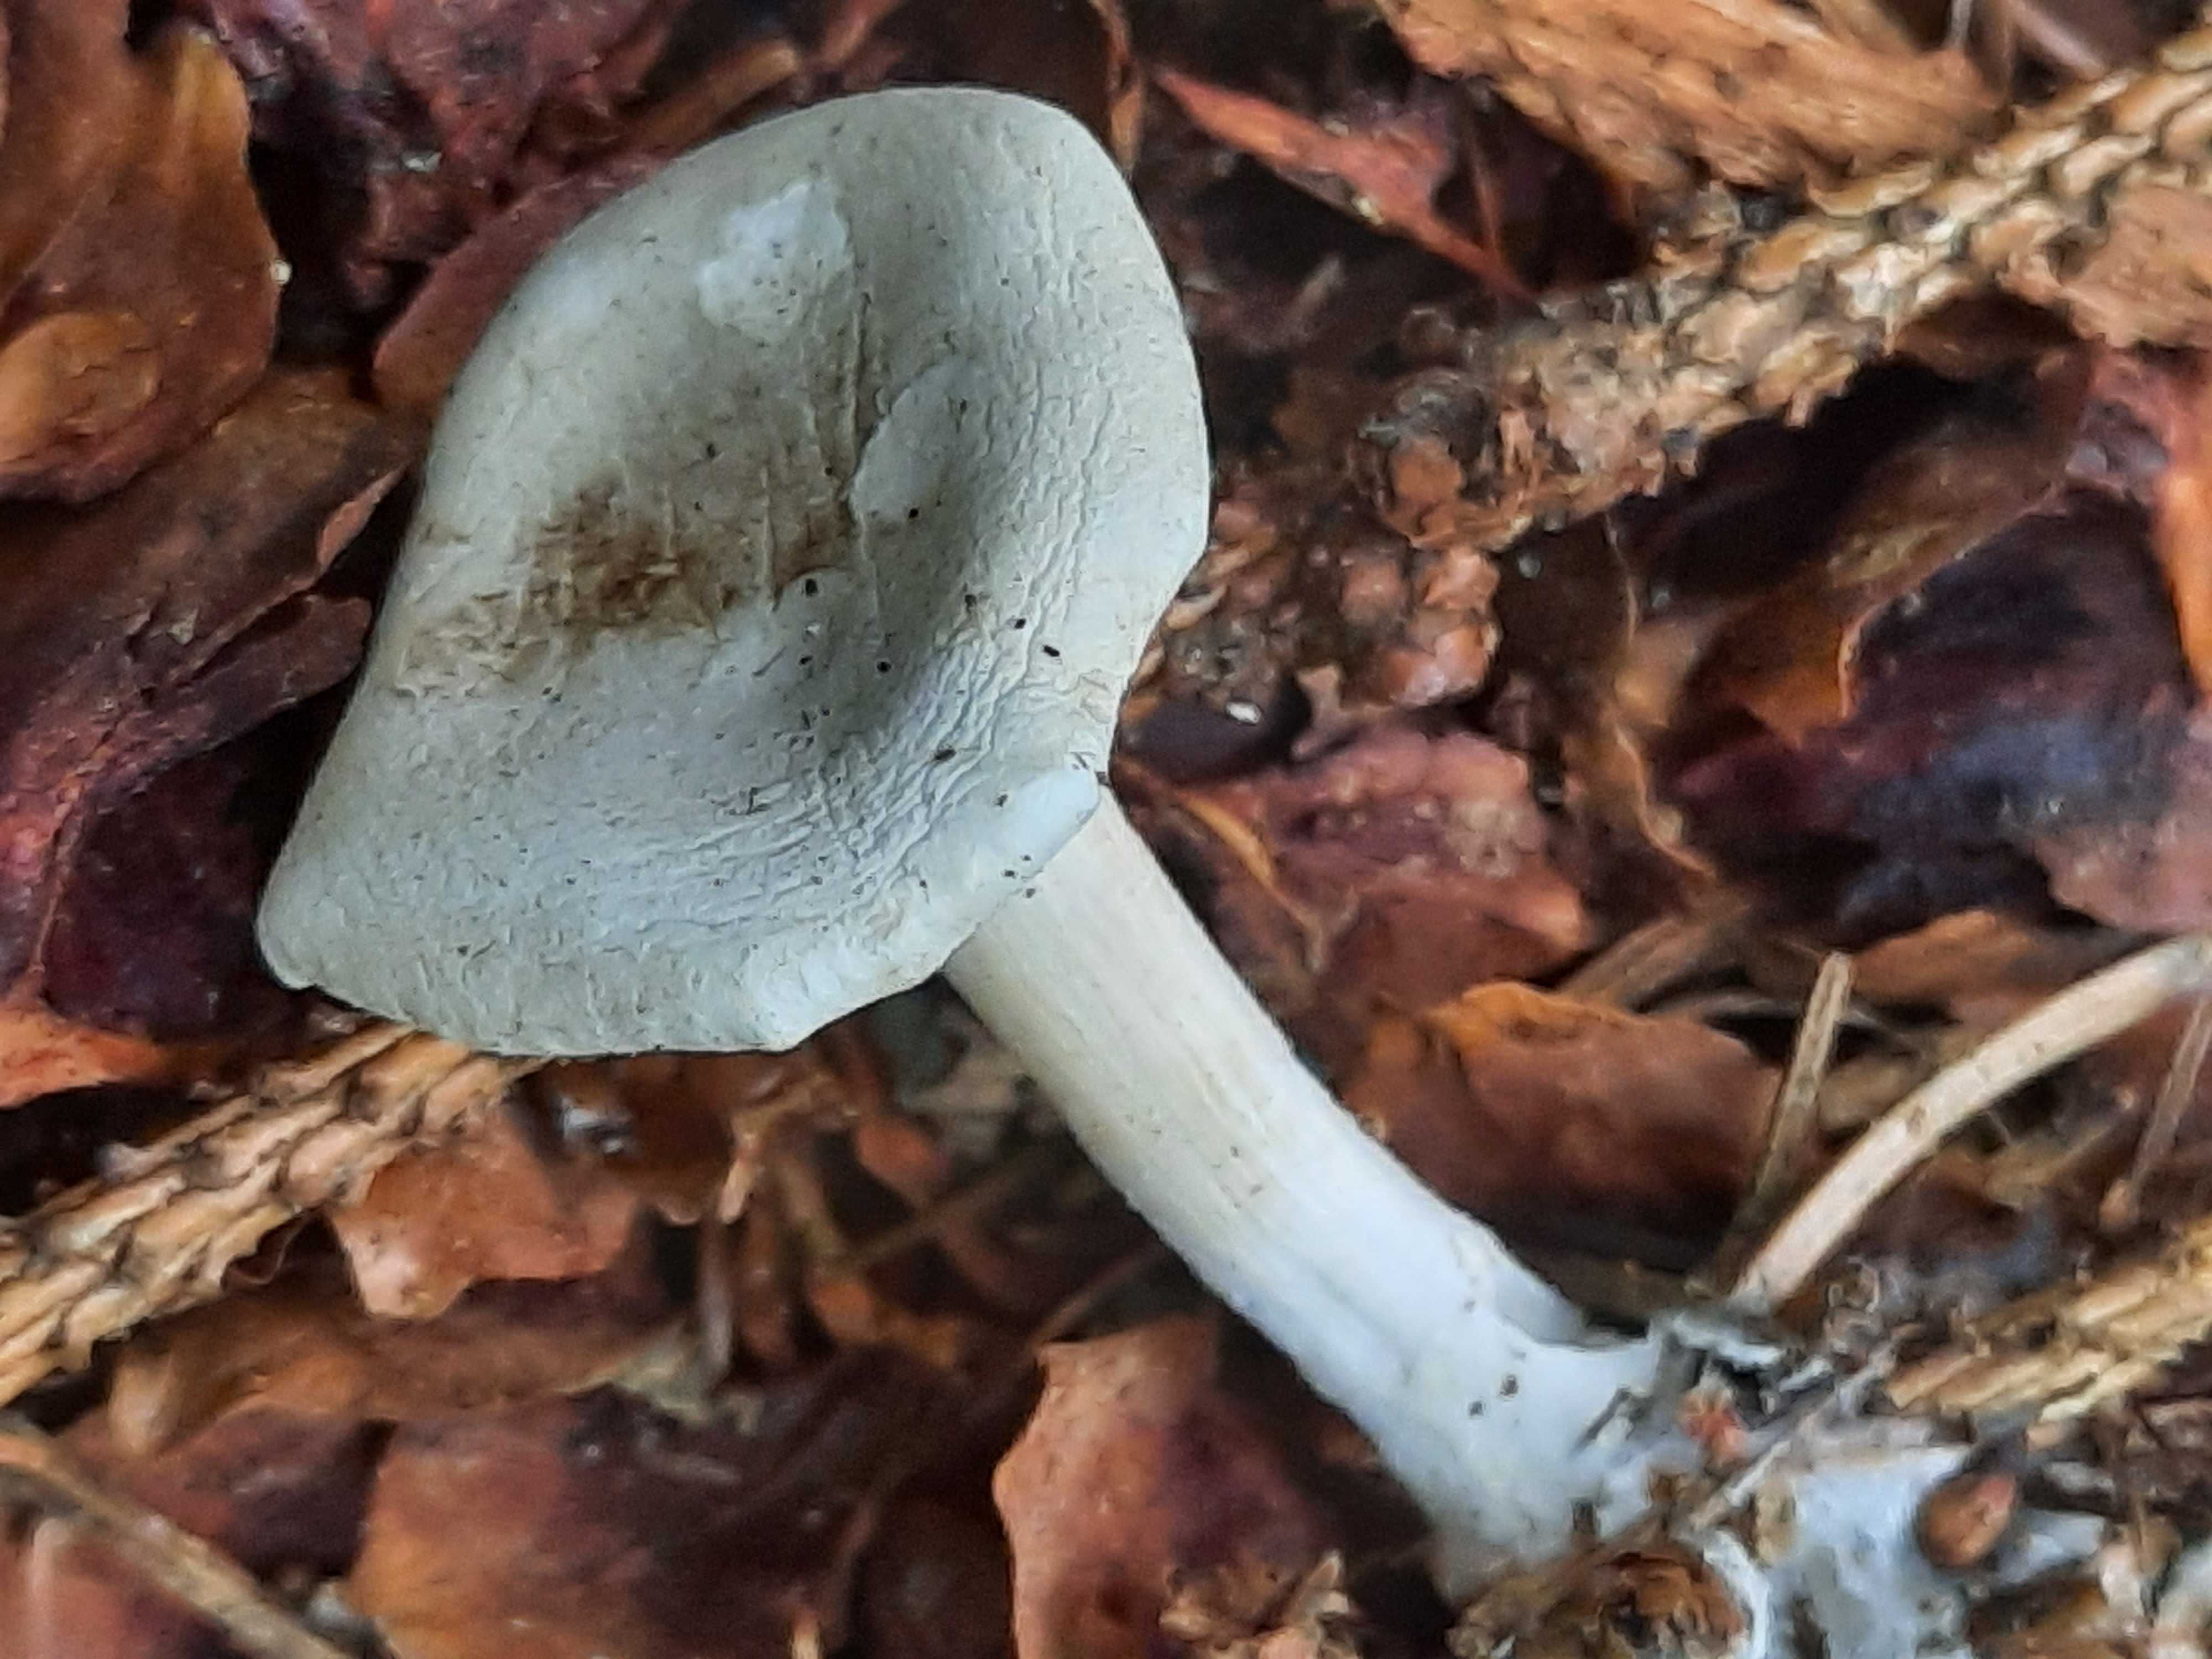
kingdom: Fungi
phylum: Basidiomycota
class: Agaricomycetes
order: Agaricales
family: Tricholomataceae
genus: Clitocybe
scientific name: Clitocybe odora
